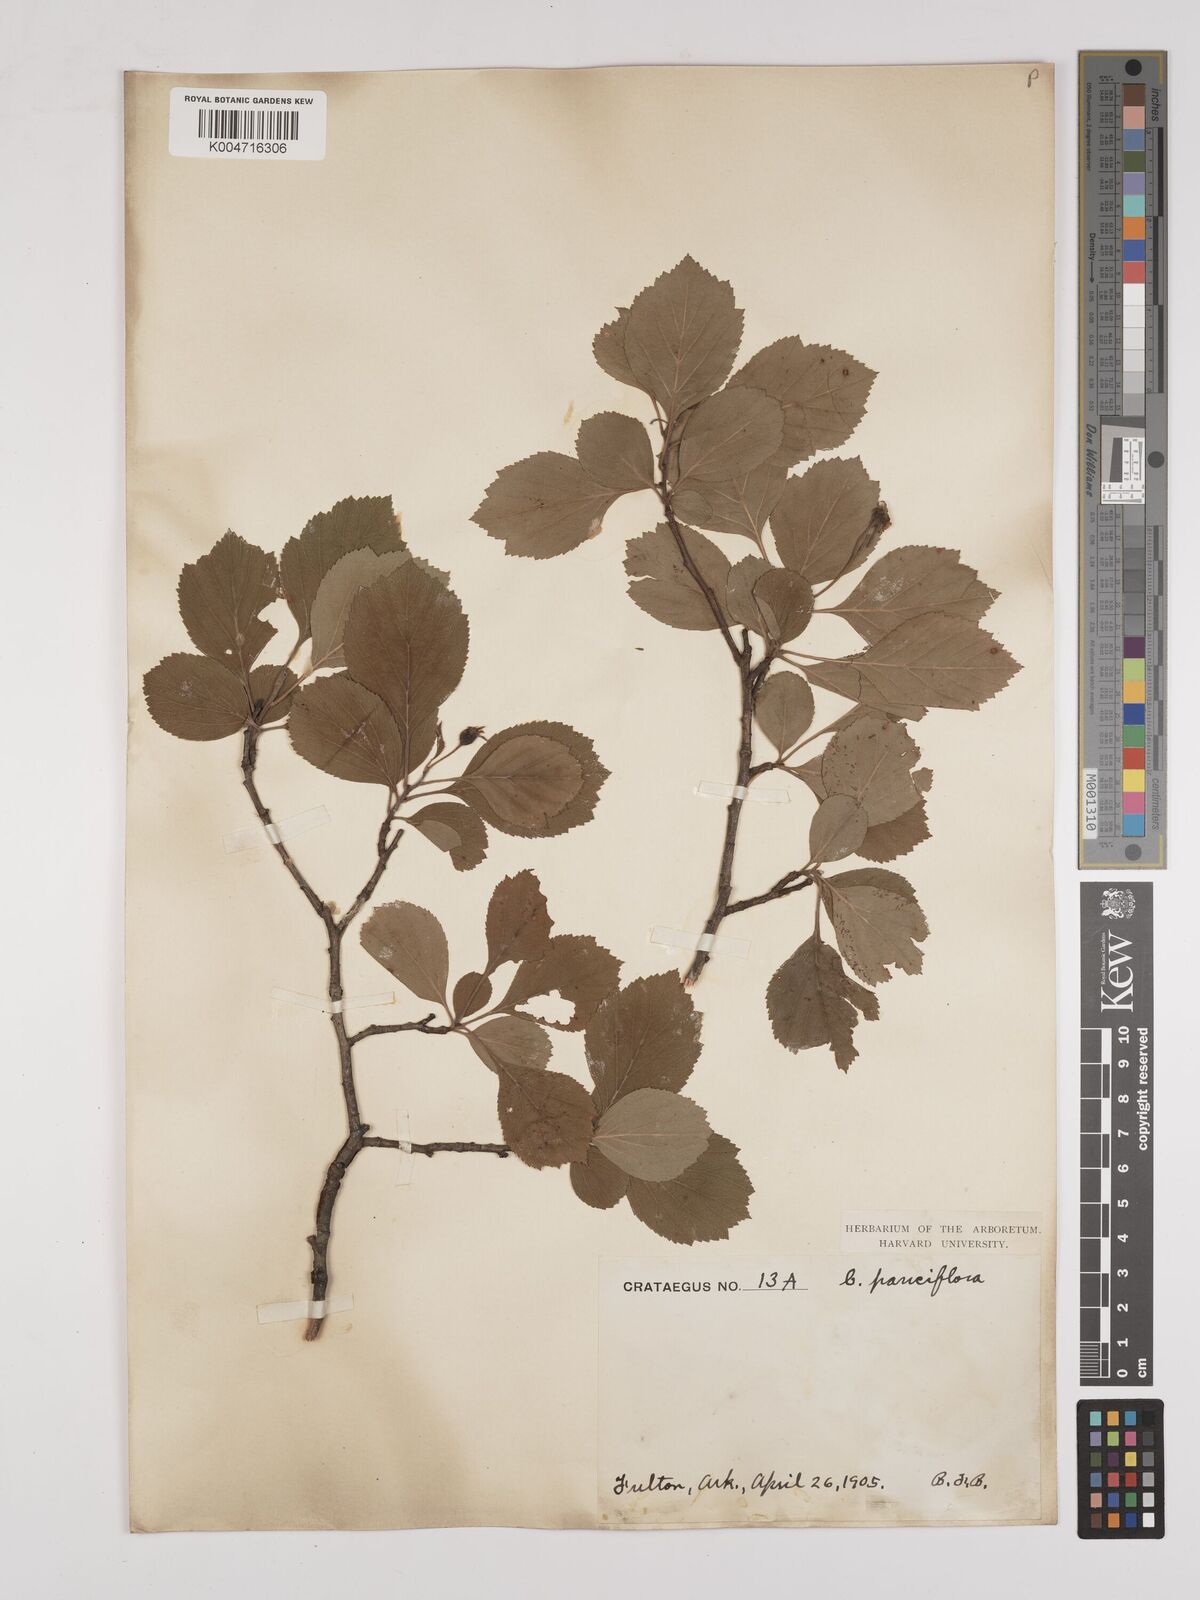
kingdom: Plantae
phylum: Tracheophyta
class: Magnoliopsida
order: Rosales
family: Rosaceae
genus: Pyracantha
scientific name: Pyracantha coccinea
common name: Firethorn
